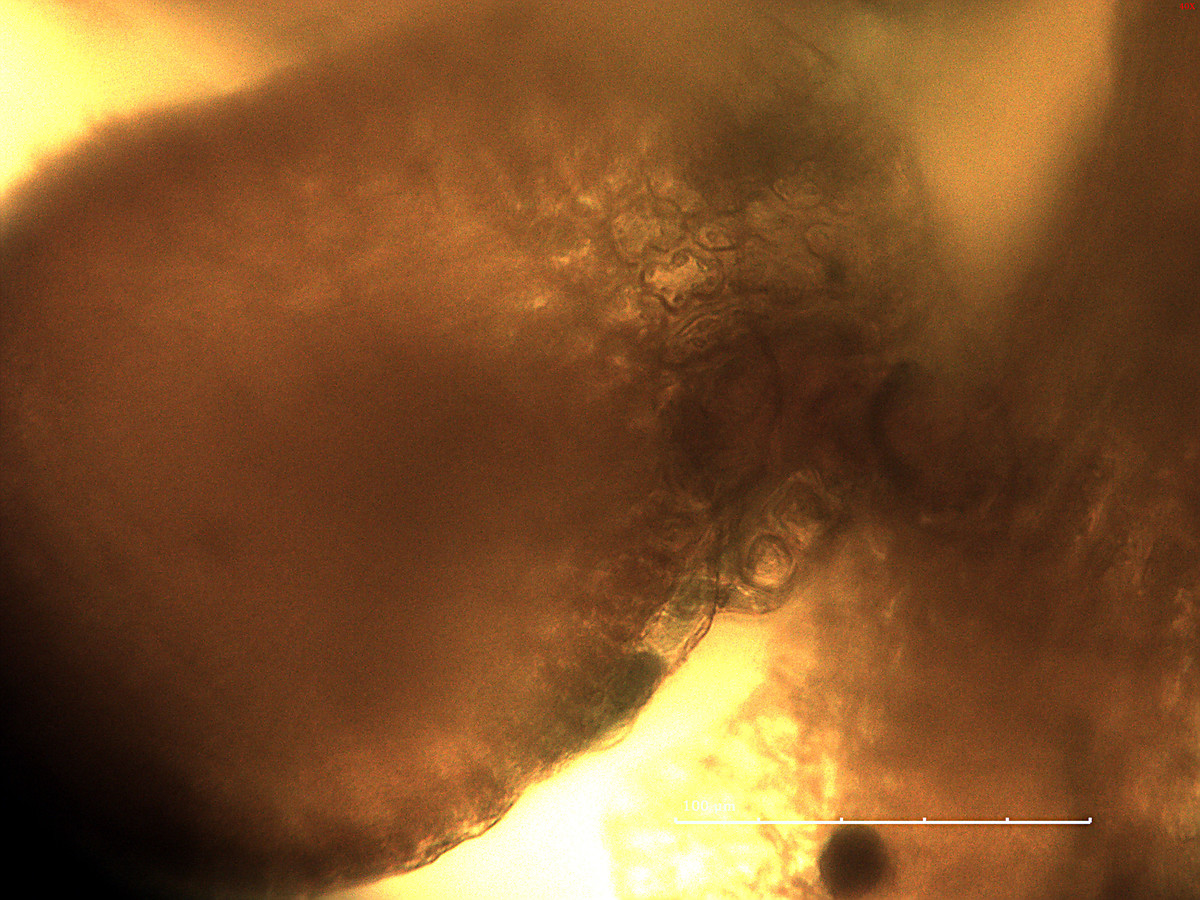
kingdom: Plantae
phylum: Marchantiophyta
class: Jungermanniopsida
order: Porellales
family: Frullaniaceae
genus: Frullania
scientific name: Frullania variegata
